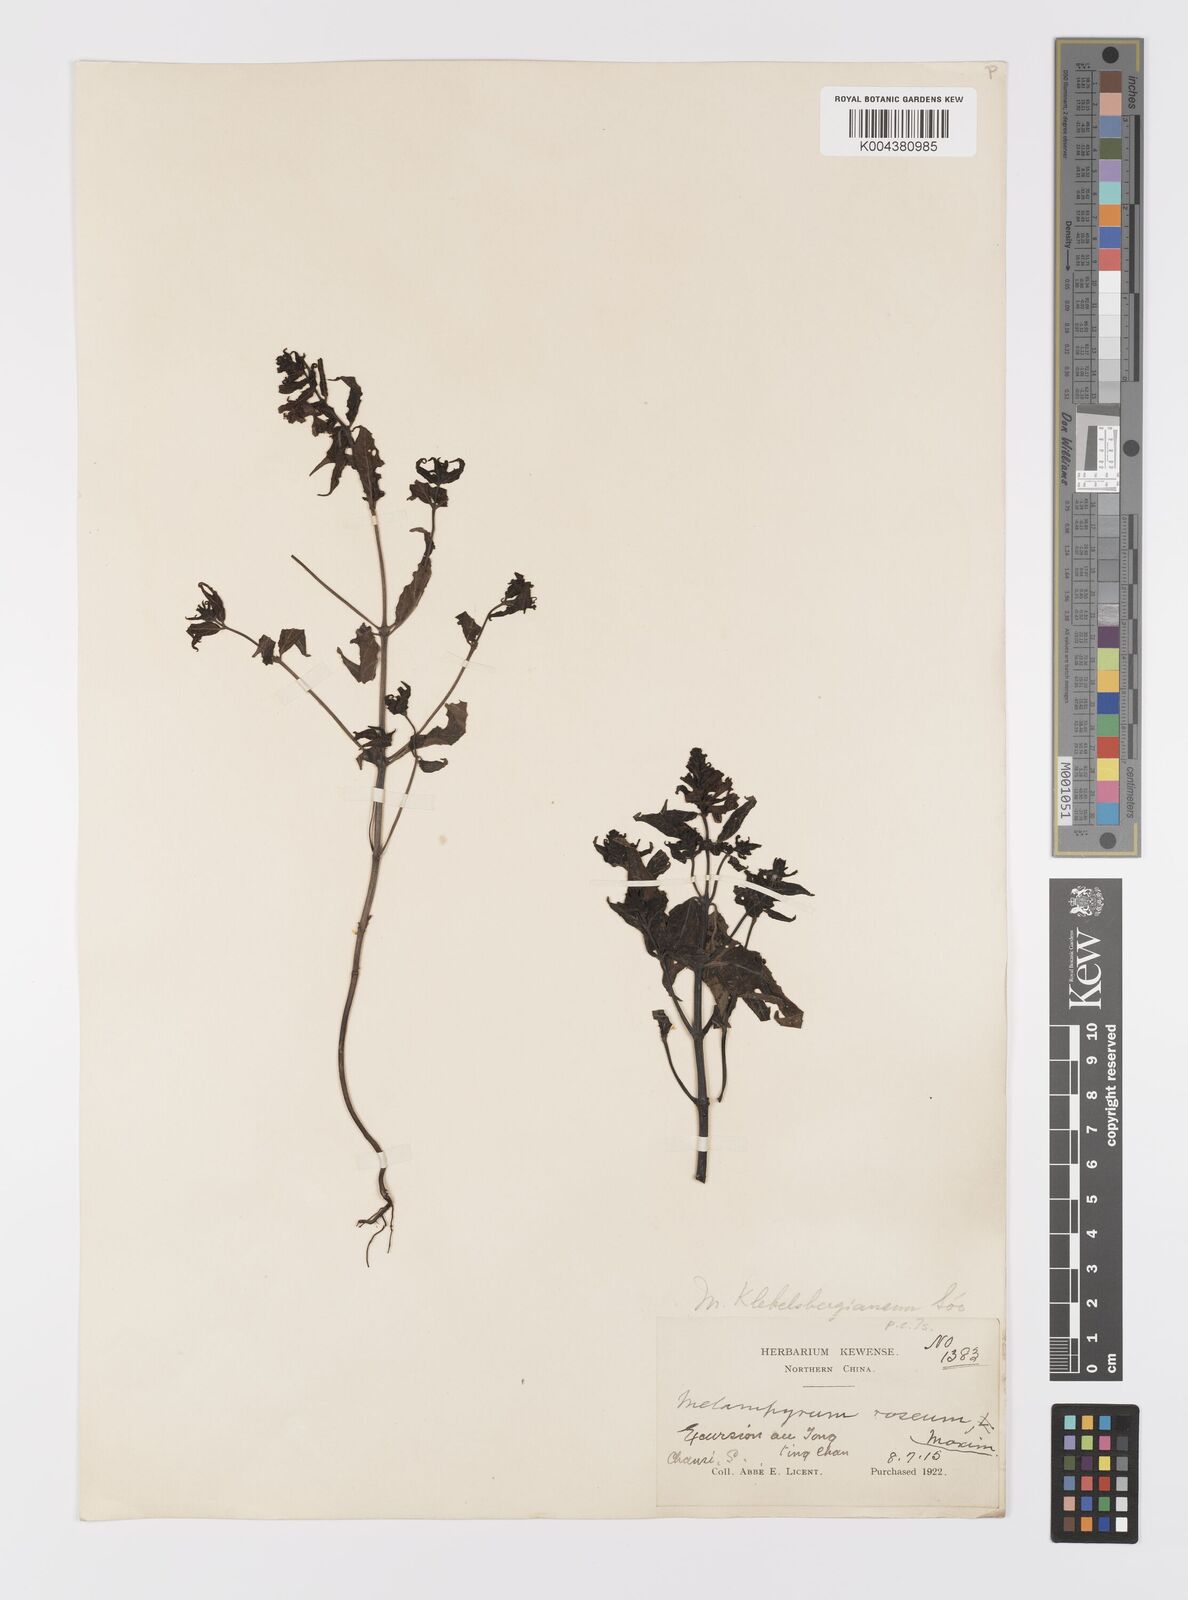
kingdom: Plantae
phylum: Tracheophyta
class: Magnoliopsida
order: Lamiales
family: Orobanchaceae
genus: Melampyrum
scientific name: Melampyrum chinense
